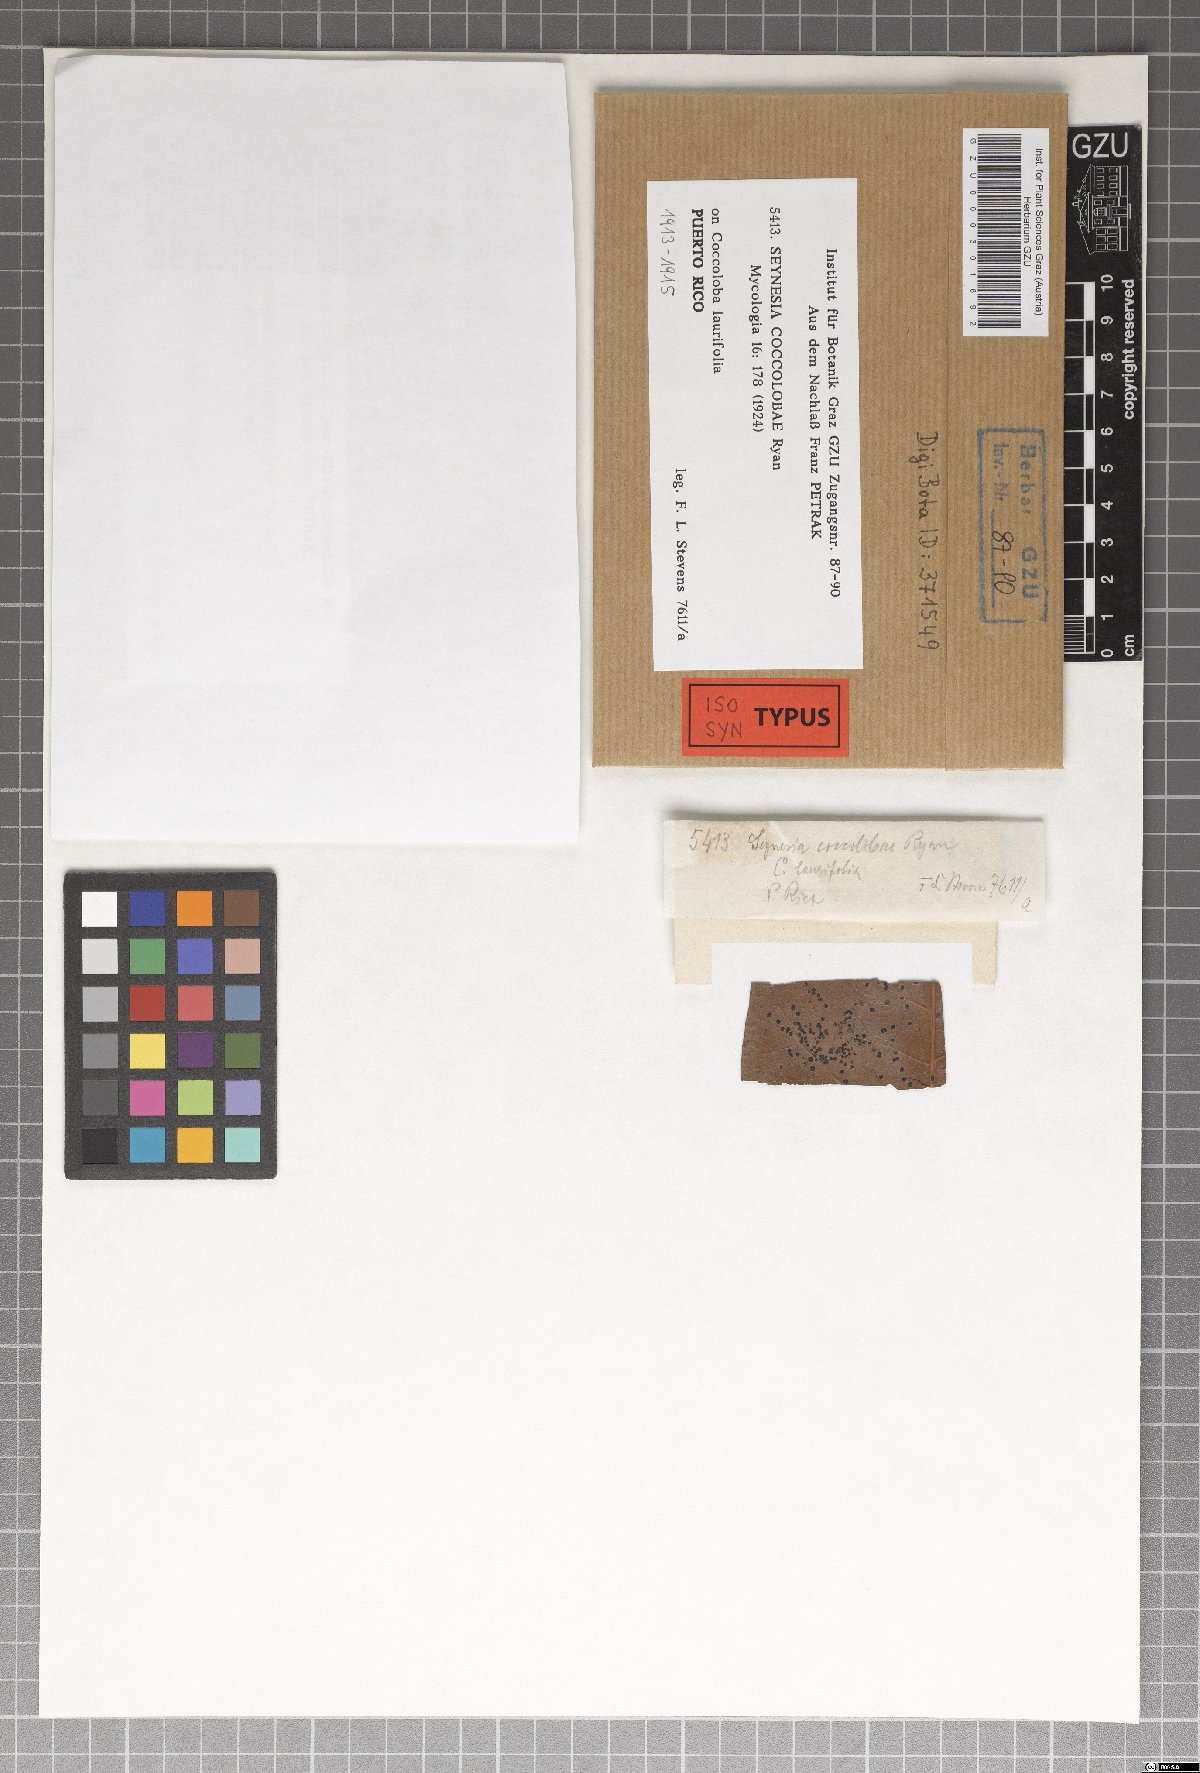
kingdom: Fungi
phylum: Ascomycota
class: Dothideomycetes
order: Asterinales
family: Parmulariaceae
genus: Cocconia
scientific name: Cocconia coccolobae
